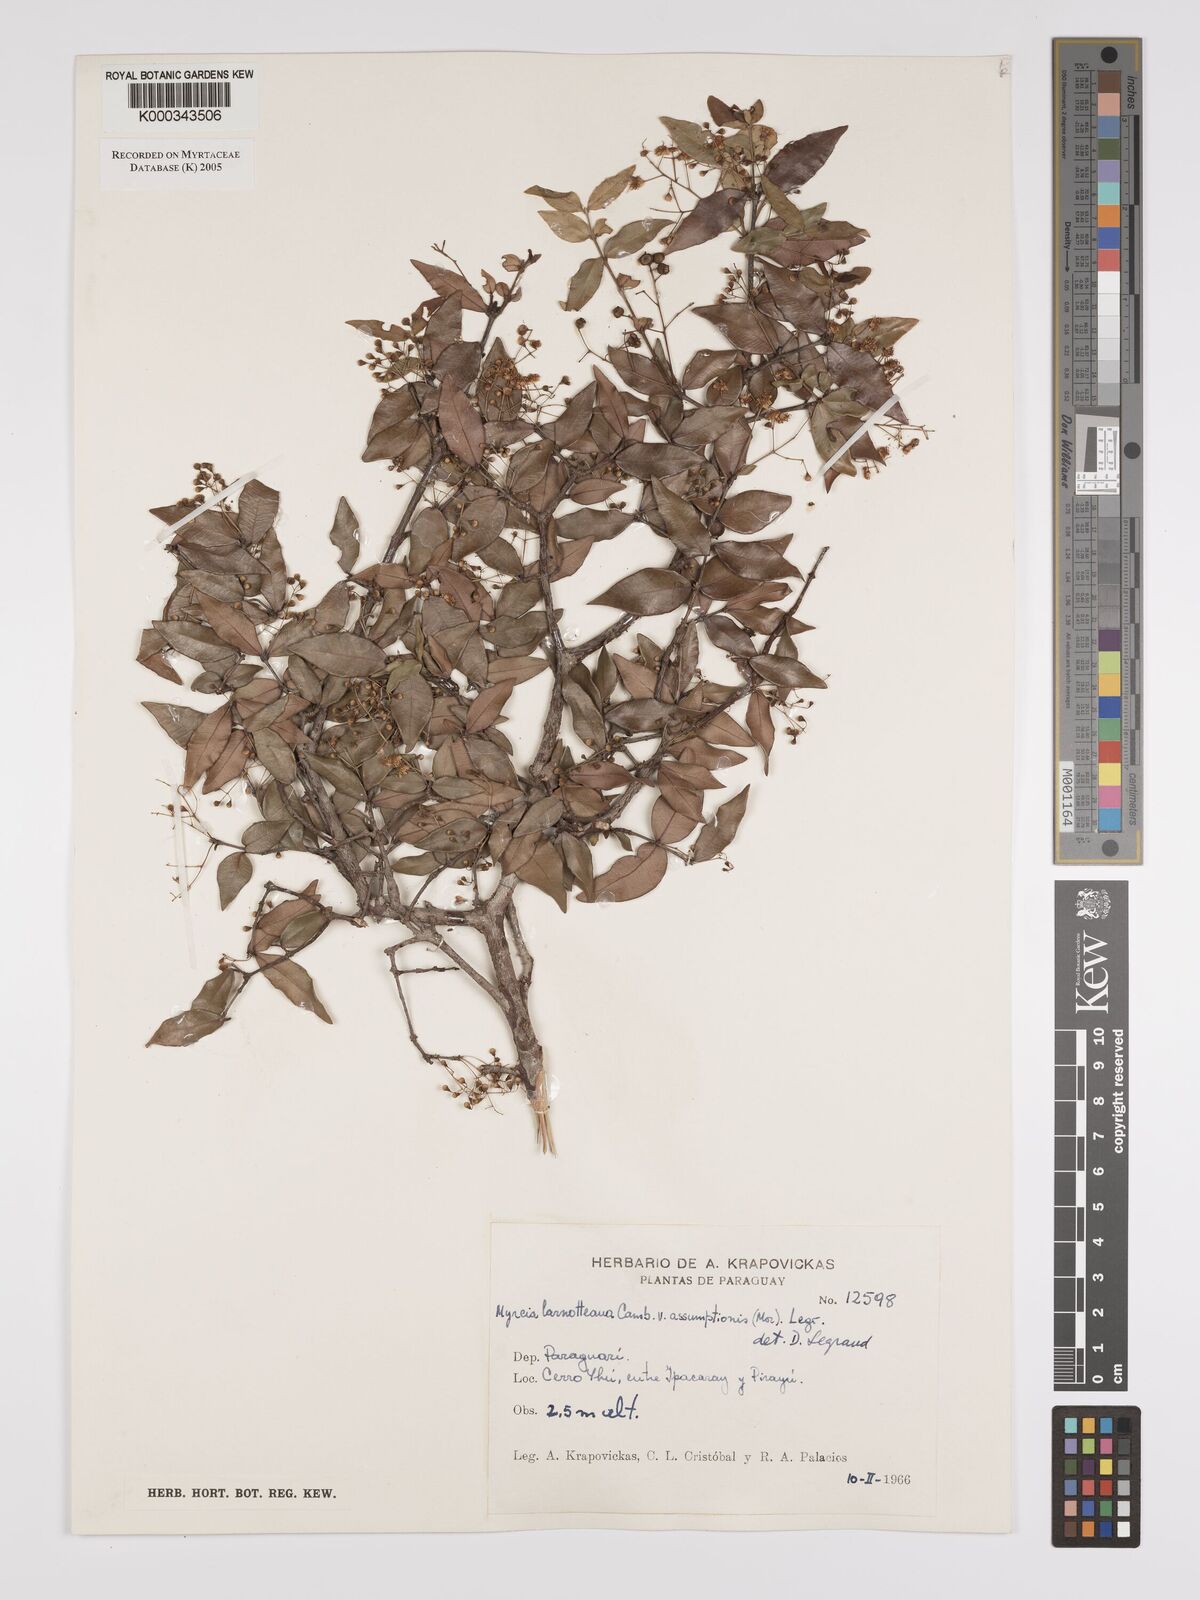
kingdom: Plantae
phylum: Tracheophyta
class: Magnoliopsida
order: Myrtales
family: Myrtaceae
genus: Myrcia
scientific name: Myrcia laruotteana
